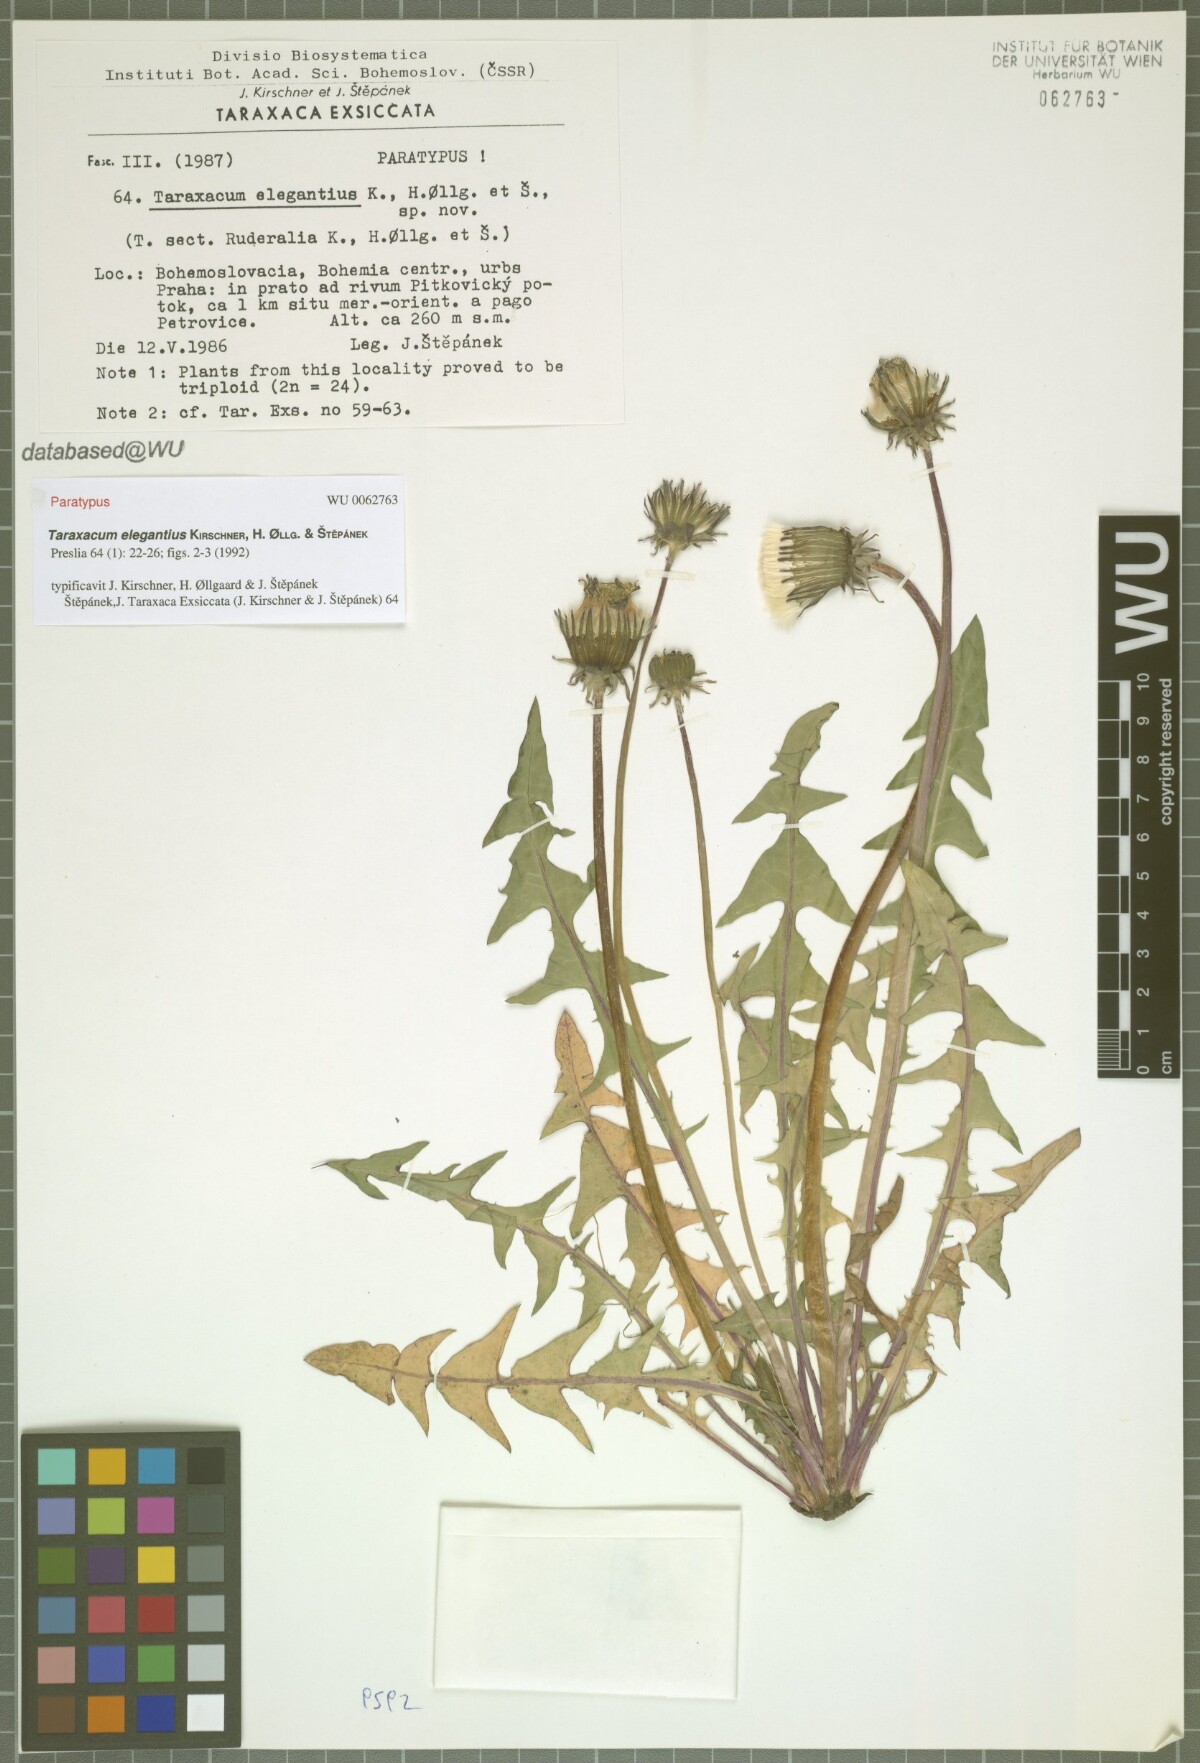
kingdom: Plantae
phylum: Tracheophyta
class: Magnoliopsida
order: Asterales
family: Asteraceae
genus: Taraxacum
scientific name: Taraxacum elegantius
